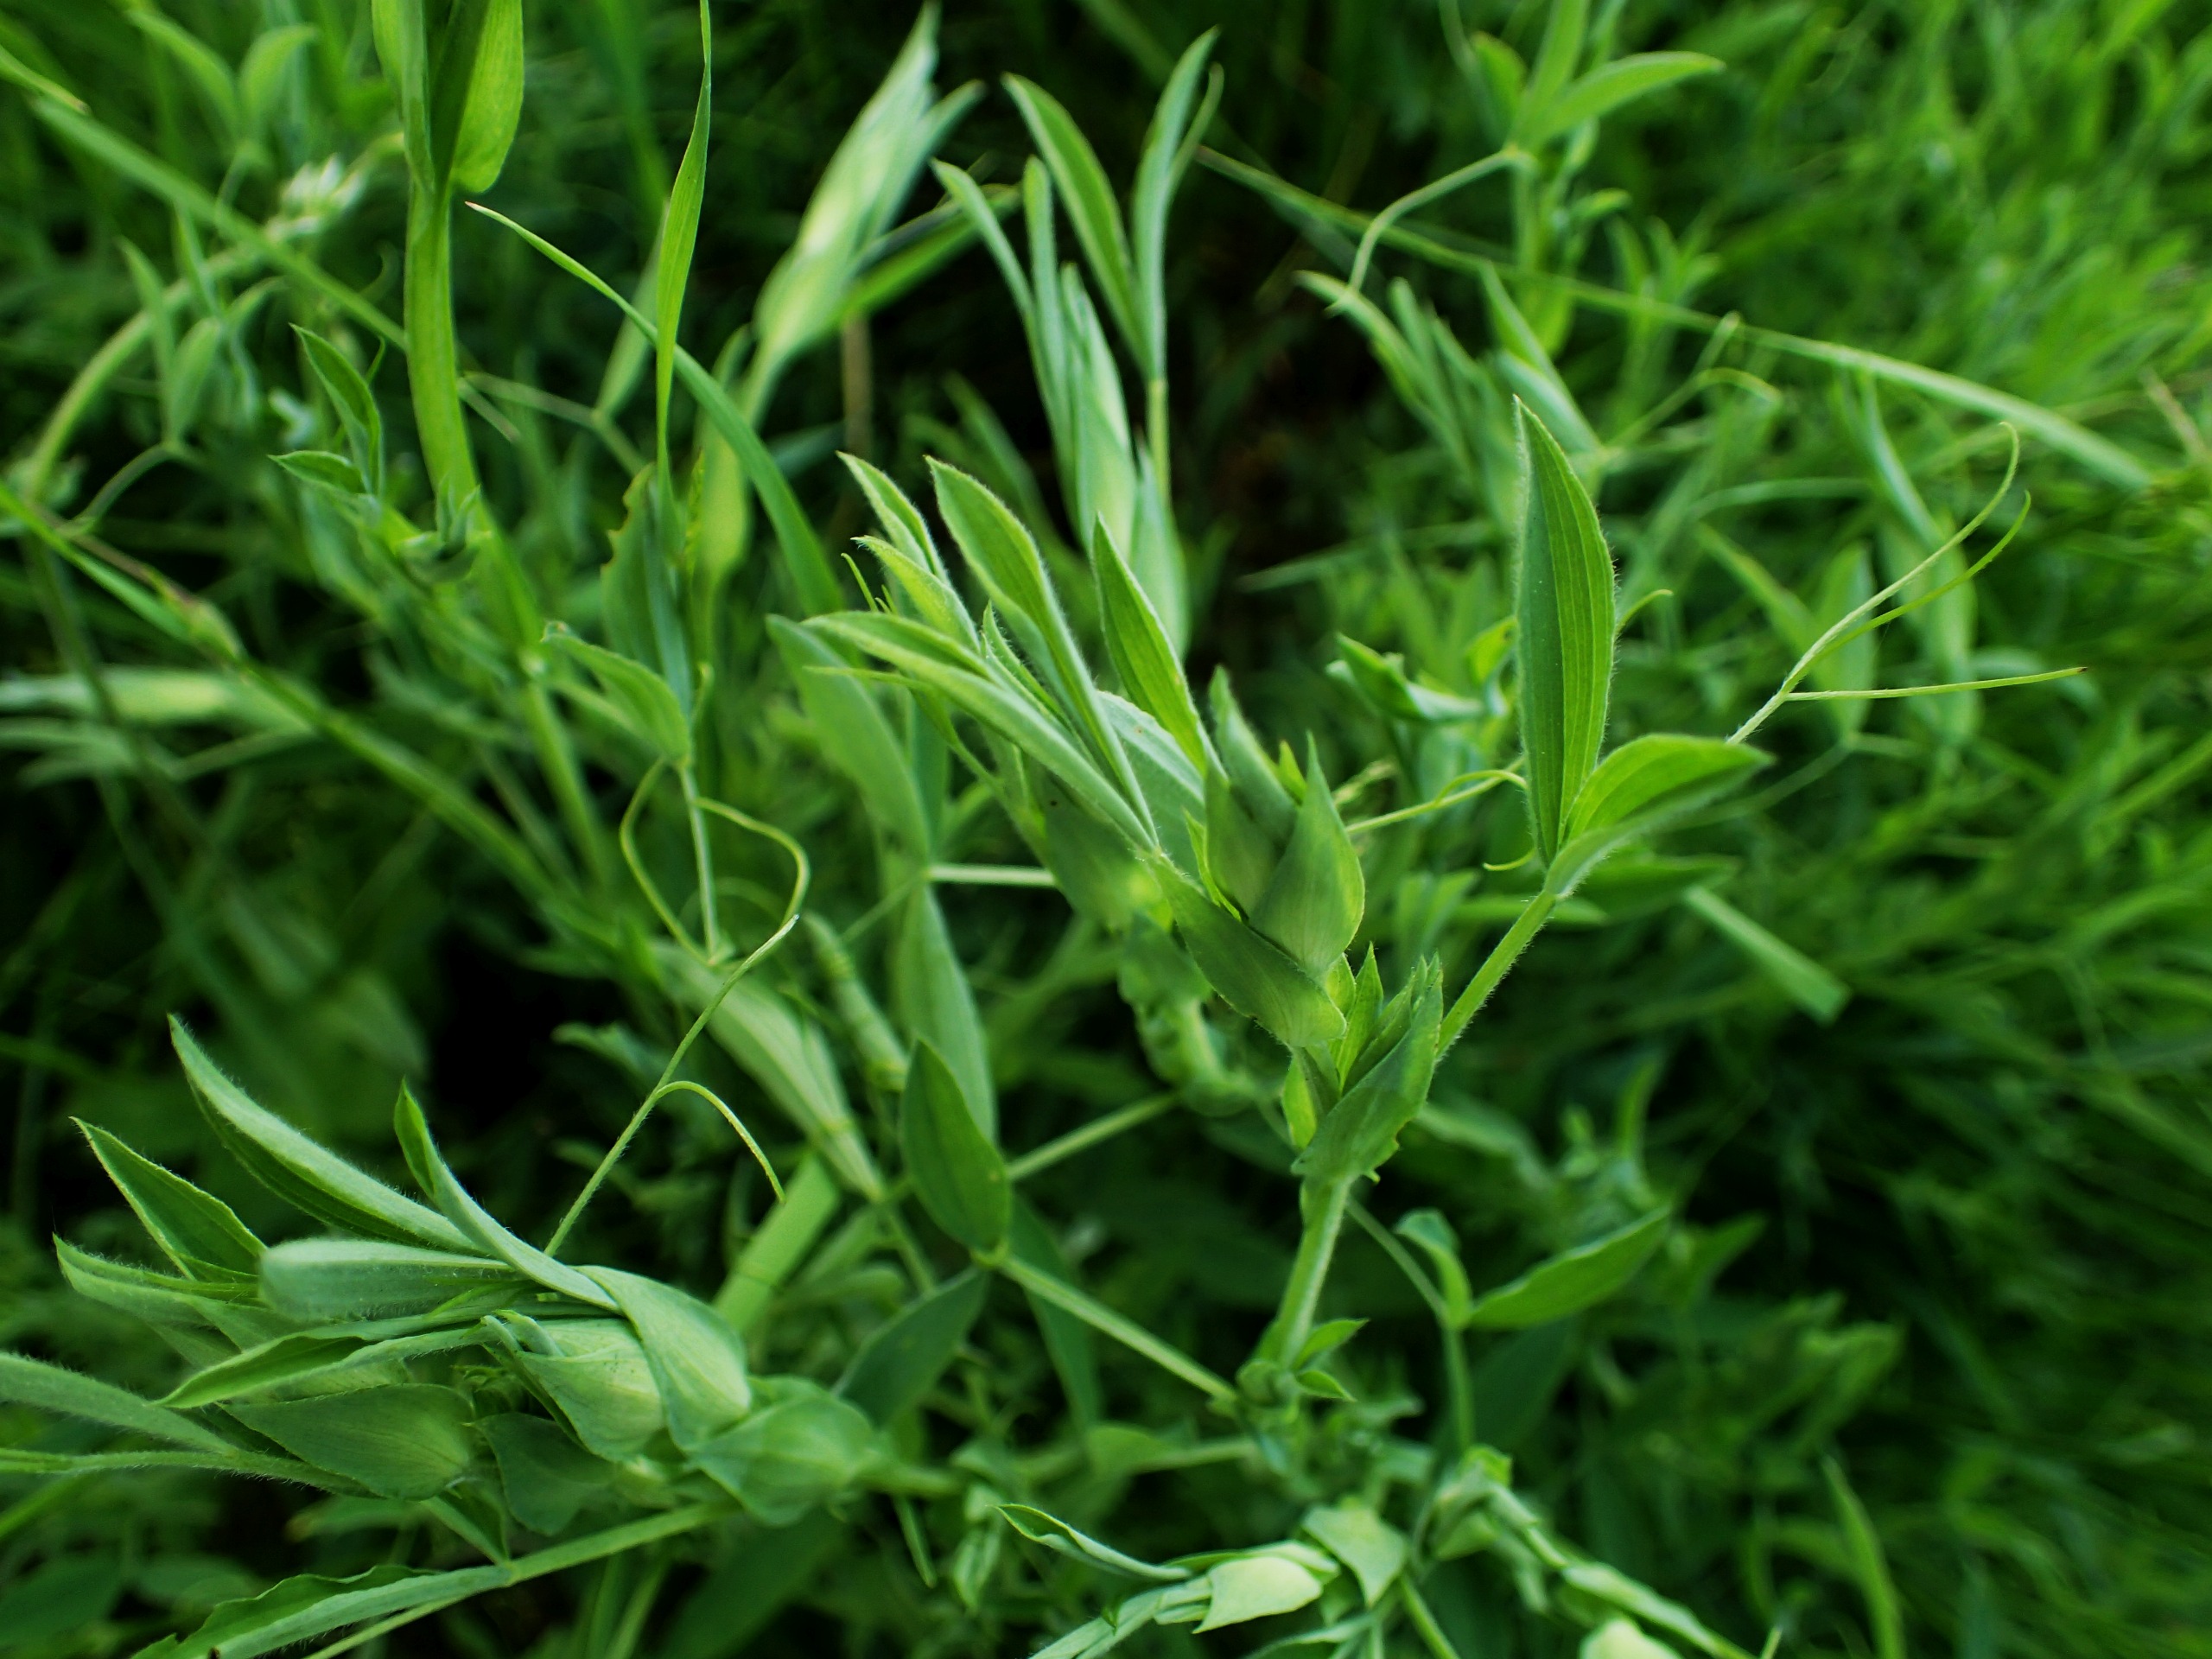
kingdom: Plantae
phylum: Tracheophyta
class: Magnoliopsida
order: Fabales
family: Fabaceae
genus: Lathyrus
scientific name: Lathyrus pratensis
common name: Gul fladbælg
